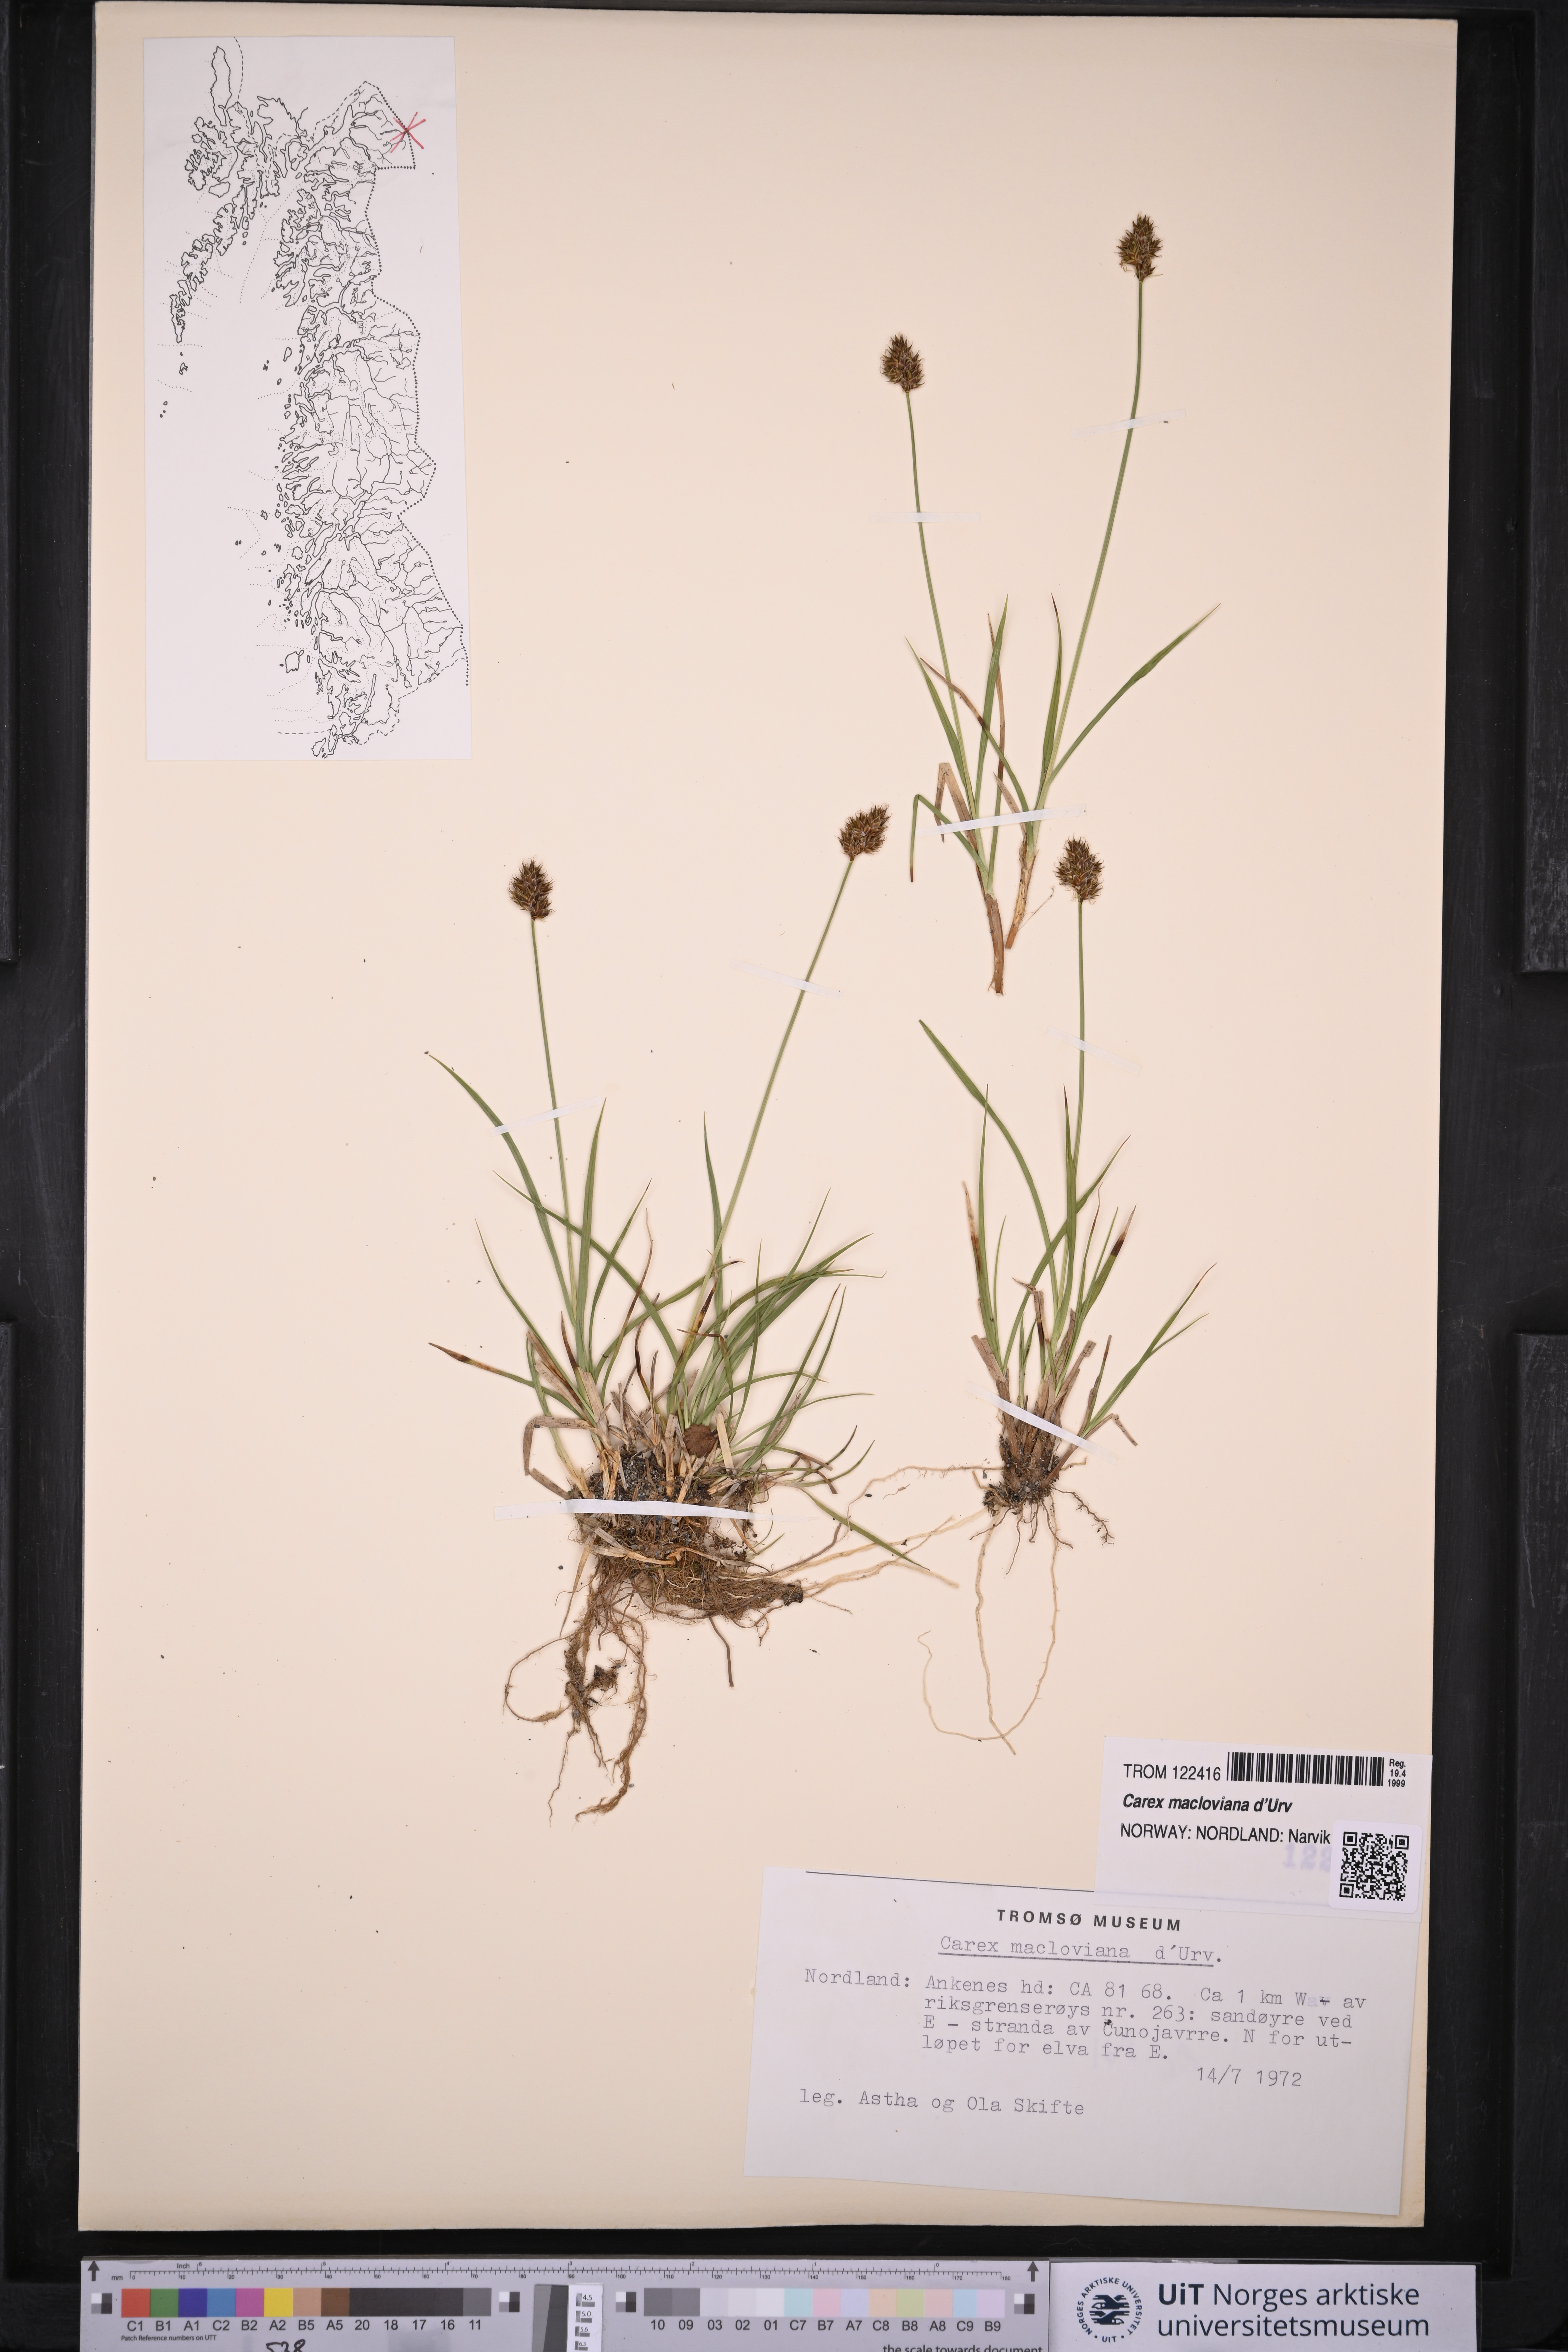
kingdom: Plantae
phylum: Tracheophyta
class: Liliopsida
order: Poales
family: Cyperaceae
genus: Carex
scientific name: Carex macloviana
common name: Falkland island sedge
